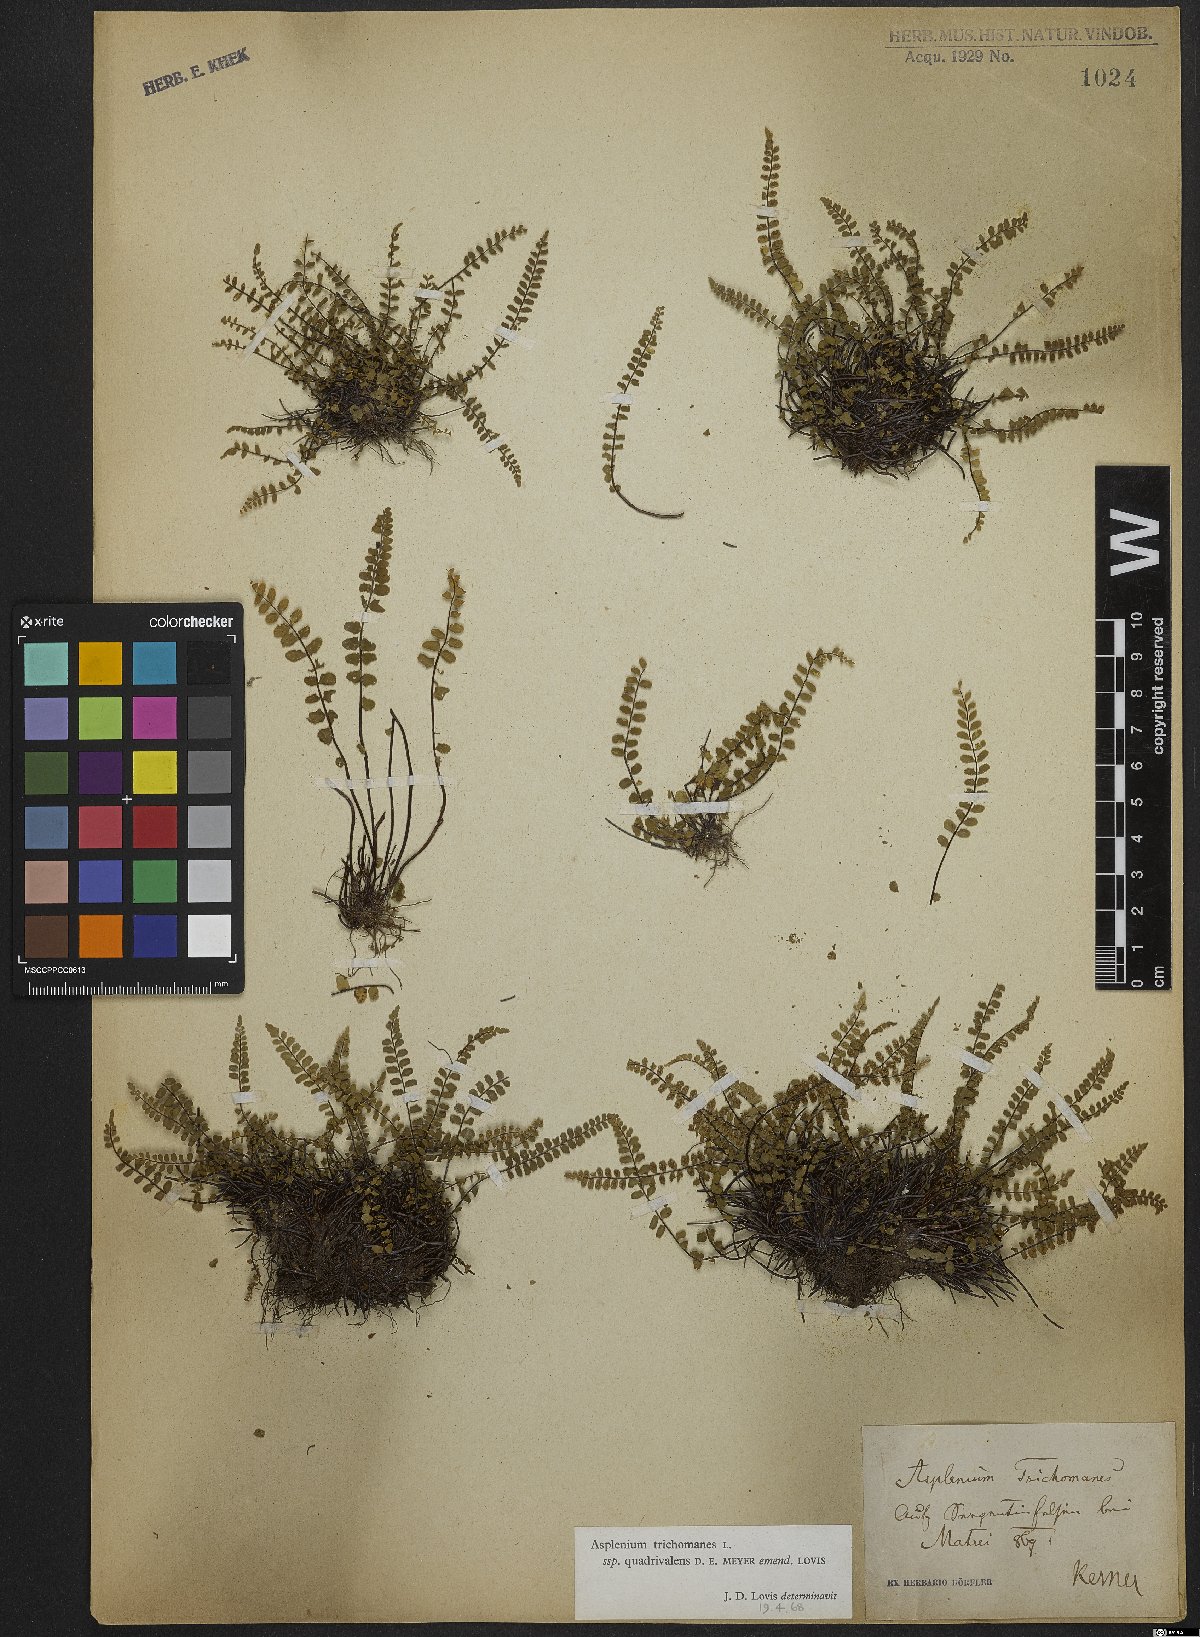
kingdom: Plantae
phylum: Tracheophyta
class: Polypodiopsida
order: Polypodiales
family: Aspleniaceae
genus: Asplenium
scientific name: Asplenium quadrivalens
